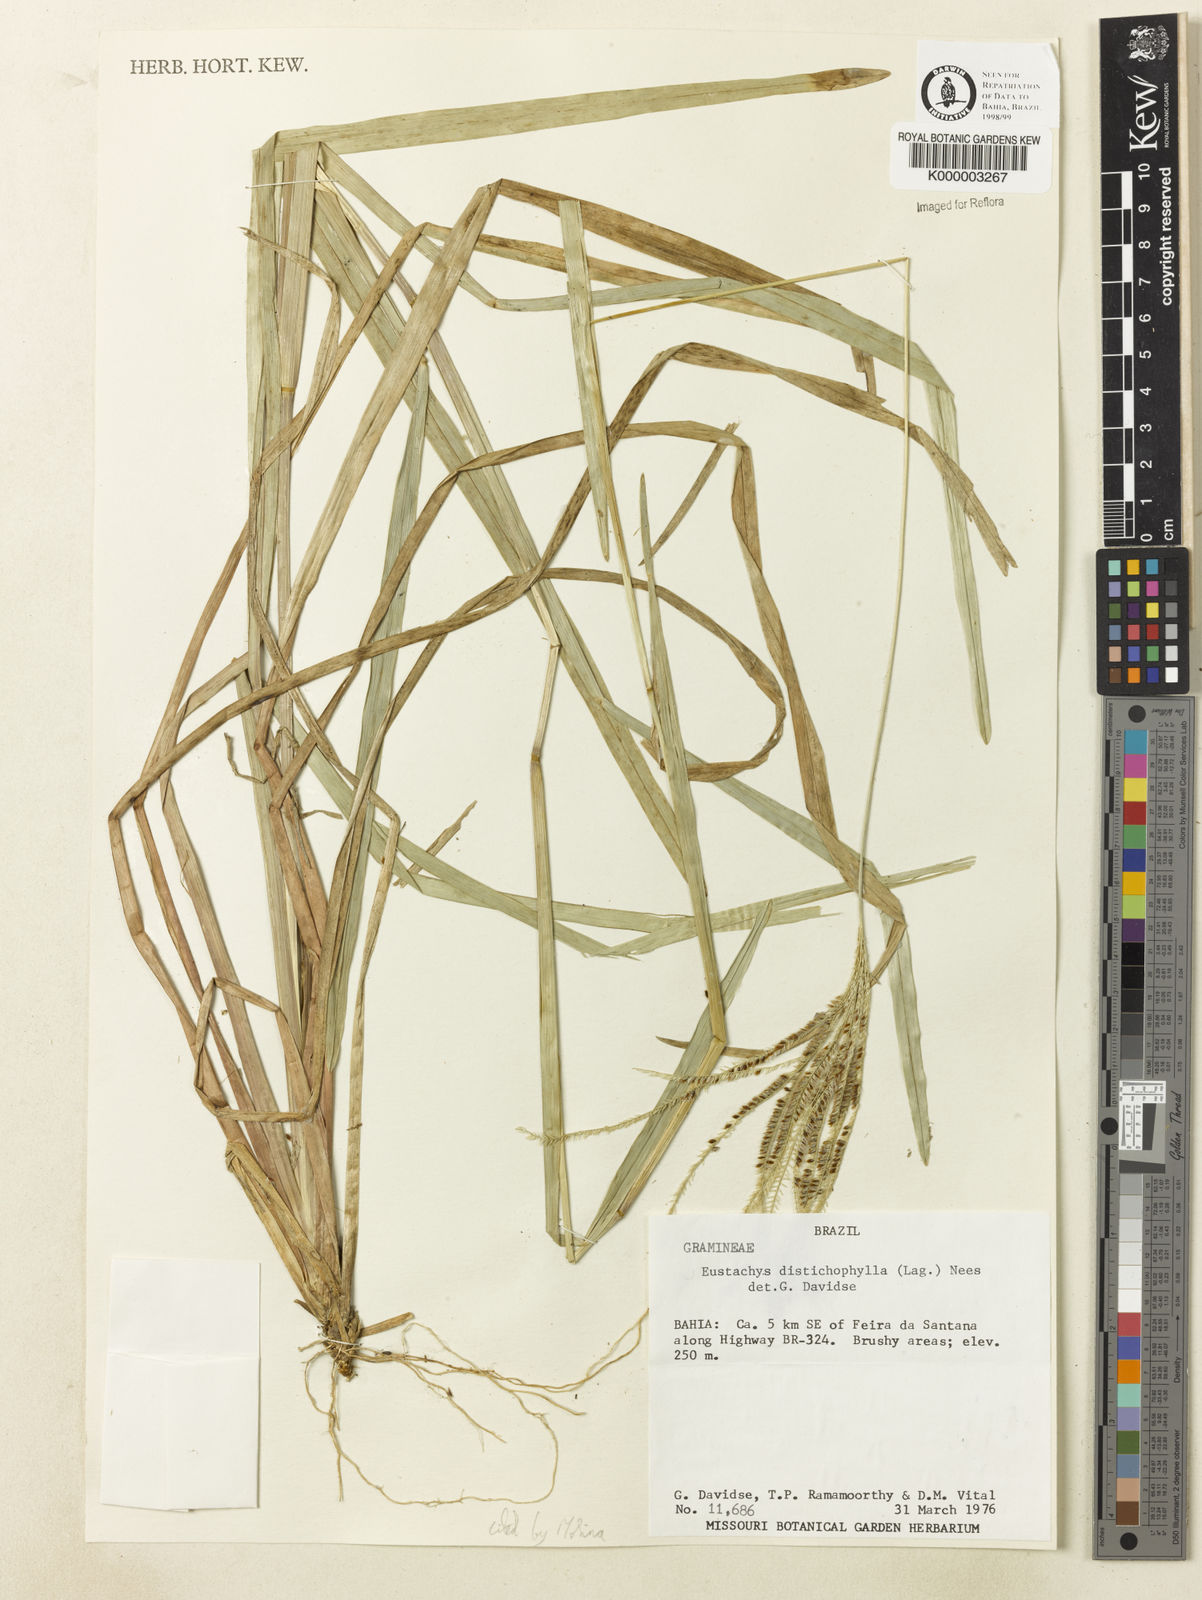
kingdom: Plantae
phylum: Tracheophyta
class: Liliopsida
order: Poales
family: Poaceae
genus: Eustachys
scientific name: Eustachys distichophylla
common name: Weeping fingergrass
